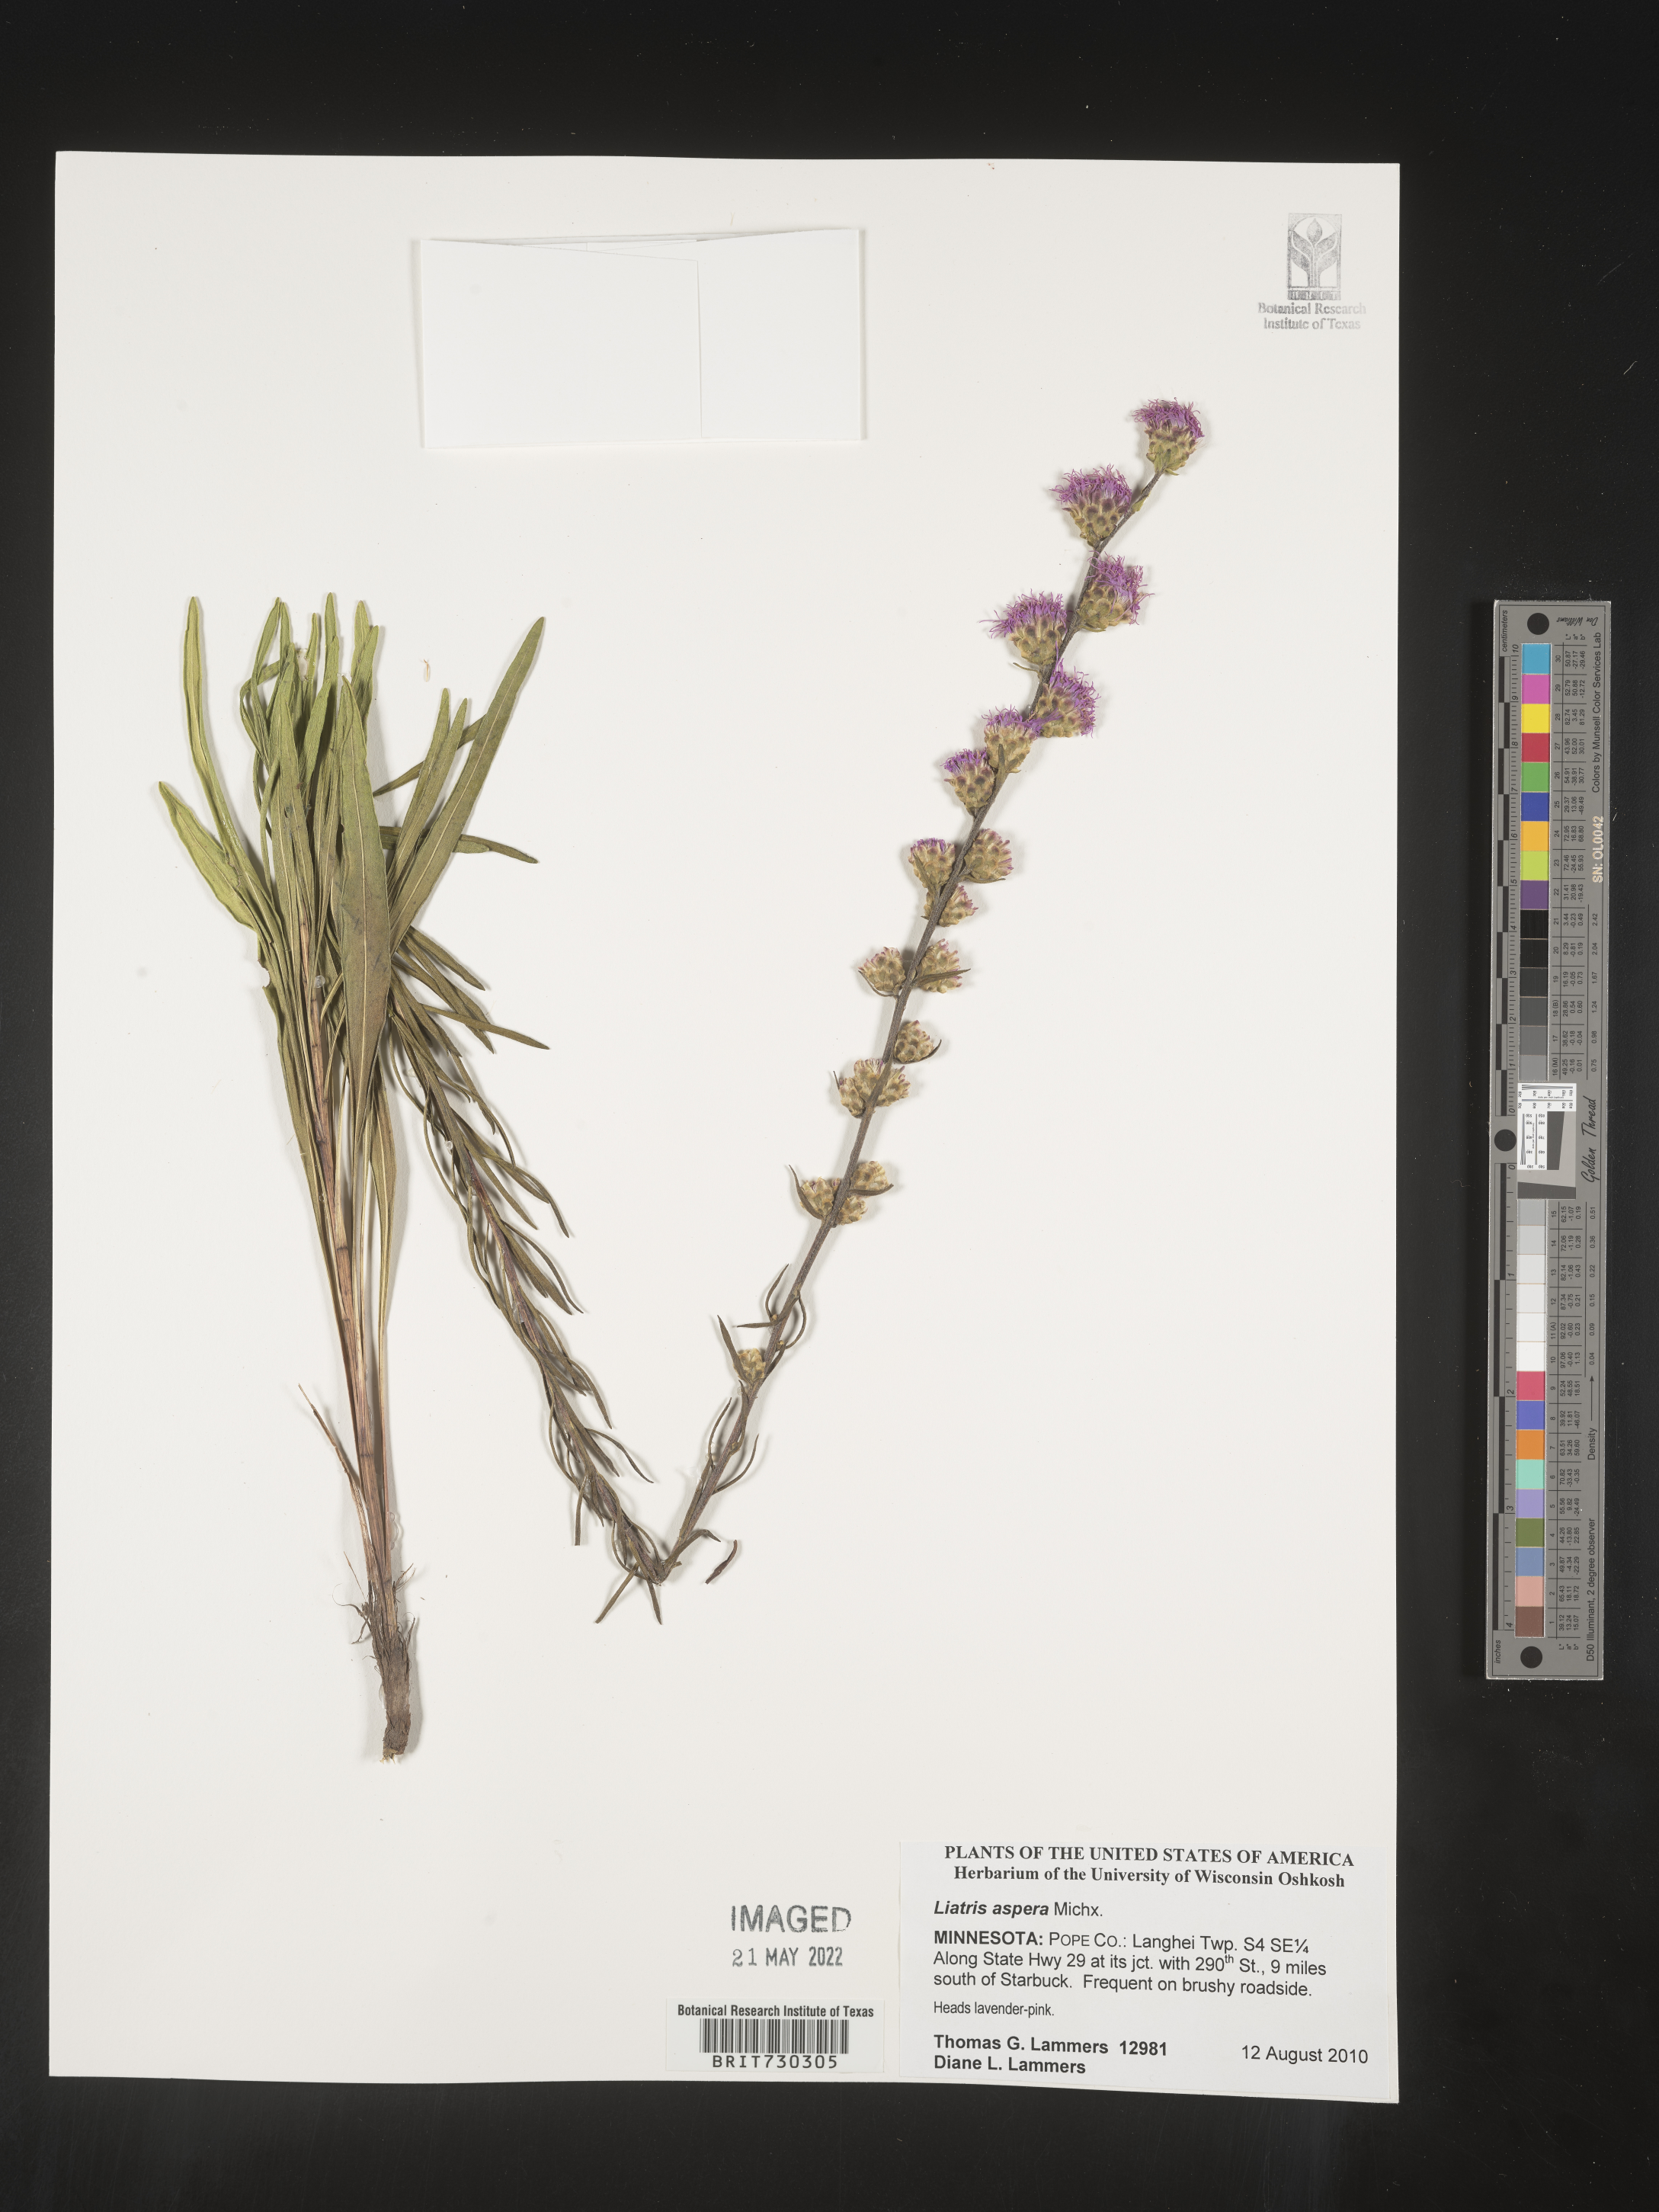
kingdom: Plantae
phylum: Tracheophyta
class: Magnoliopsida
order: Asterales
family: Asteraceae
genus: Liatris
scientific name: Liatris aspera
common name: Lacerate blazing-star
